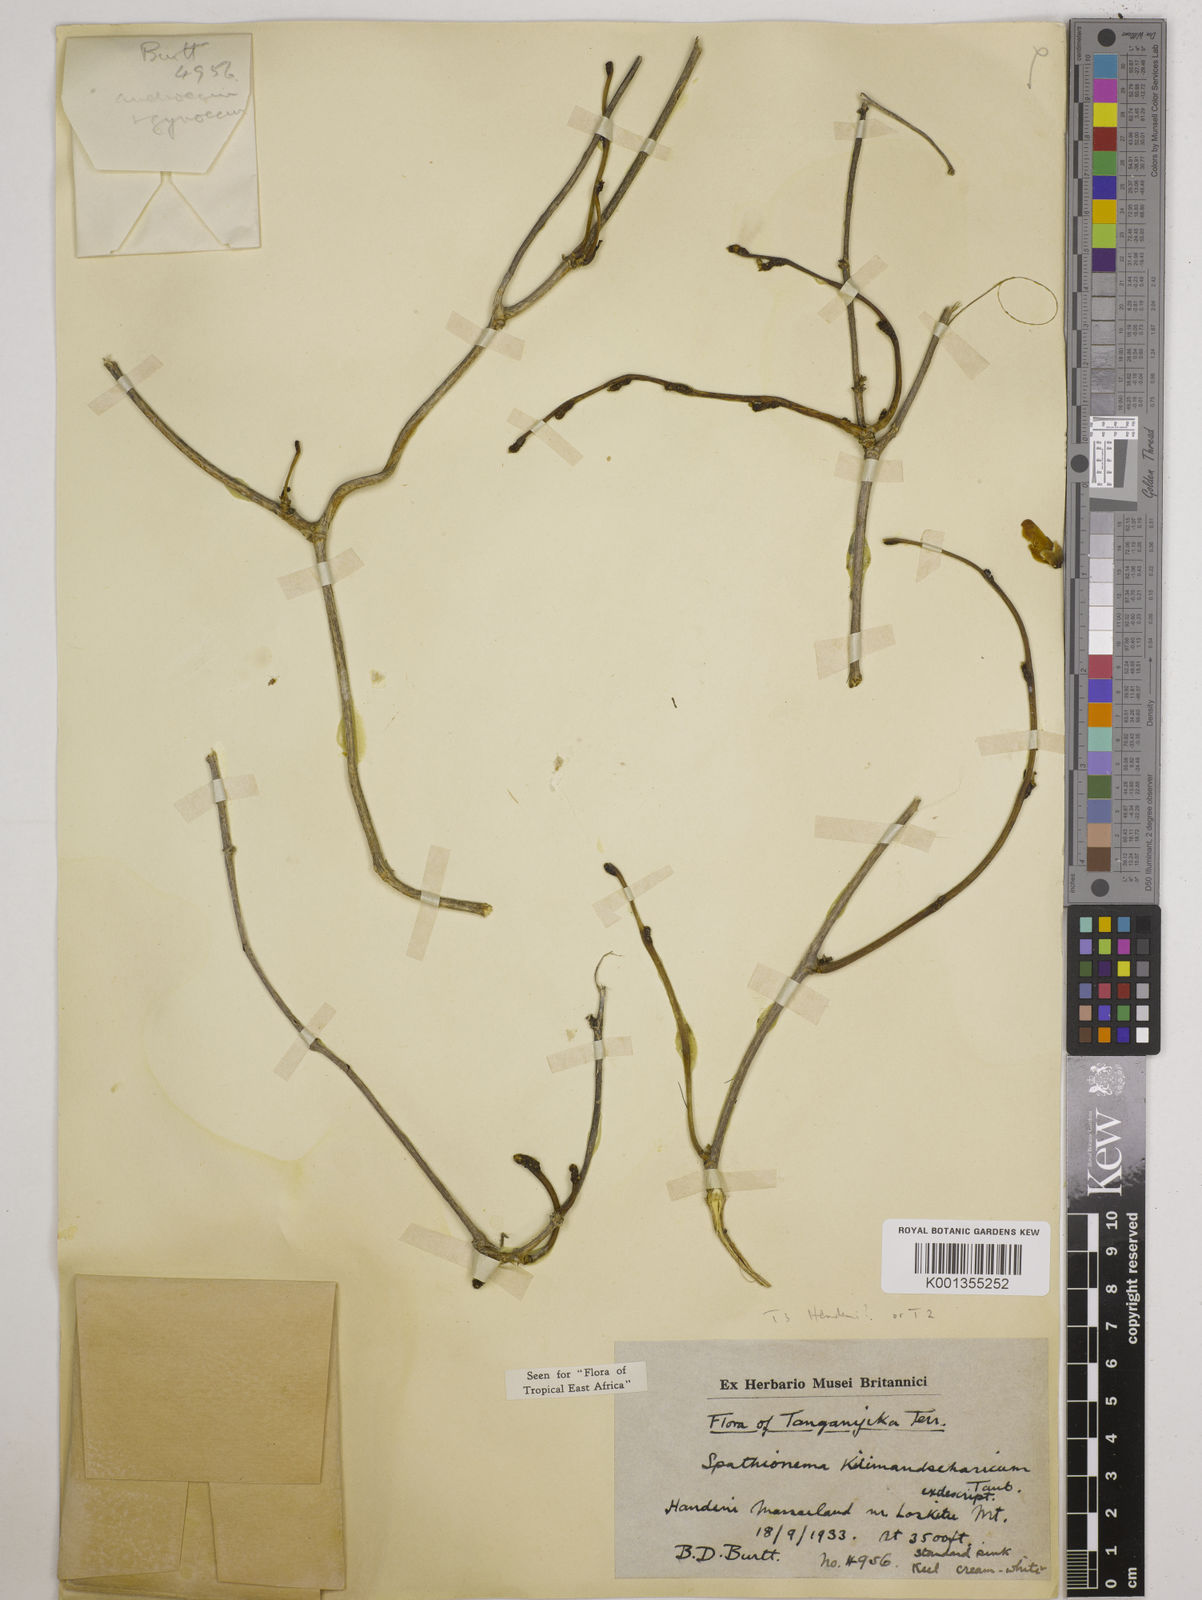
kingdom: Plantae
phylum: Tracheophyta
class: Magnoliopsida
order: Fabales
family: Fabaceae
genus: Spathionema
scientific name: Spathionema kilimandscharicum
